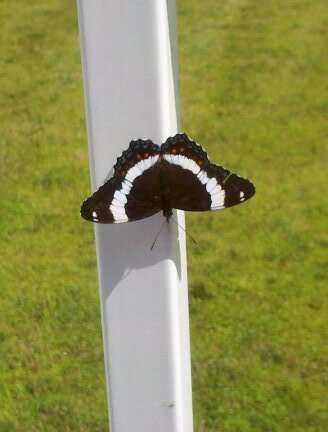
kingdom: Animalia
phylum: Arthropoda
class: Insecta
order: Lepidoptera
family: Nymphalidae
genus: Limenitis
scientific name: Limenitis arthemis
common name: Red-spotted Admiral
